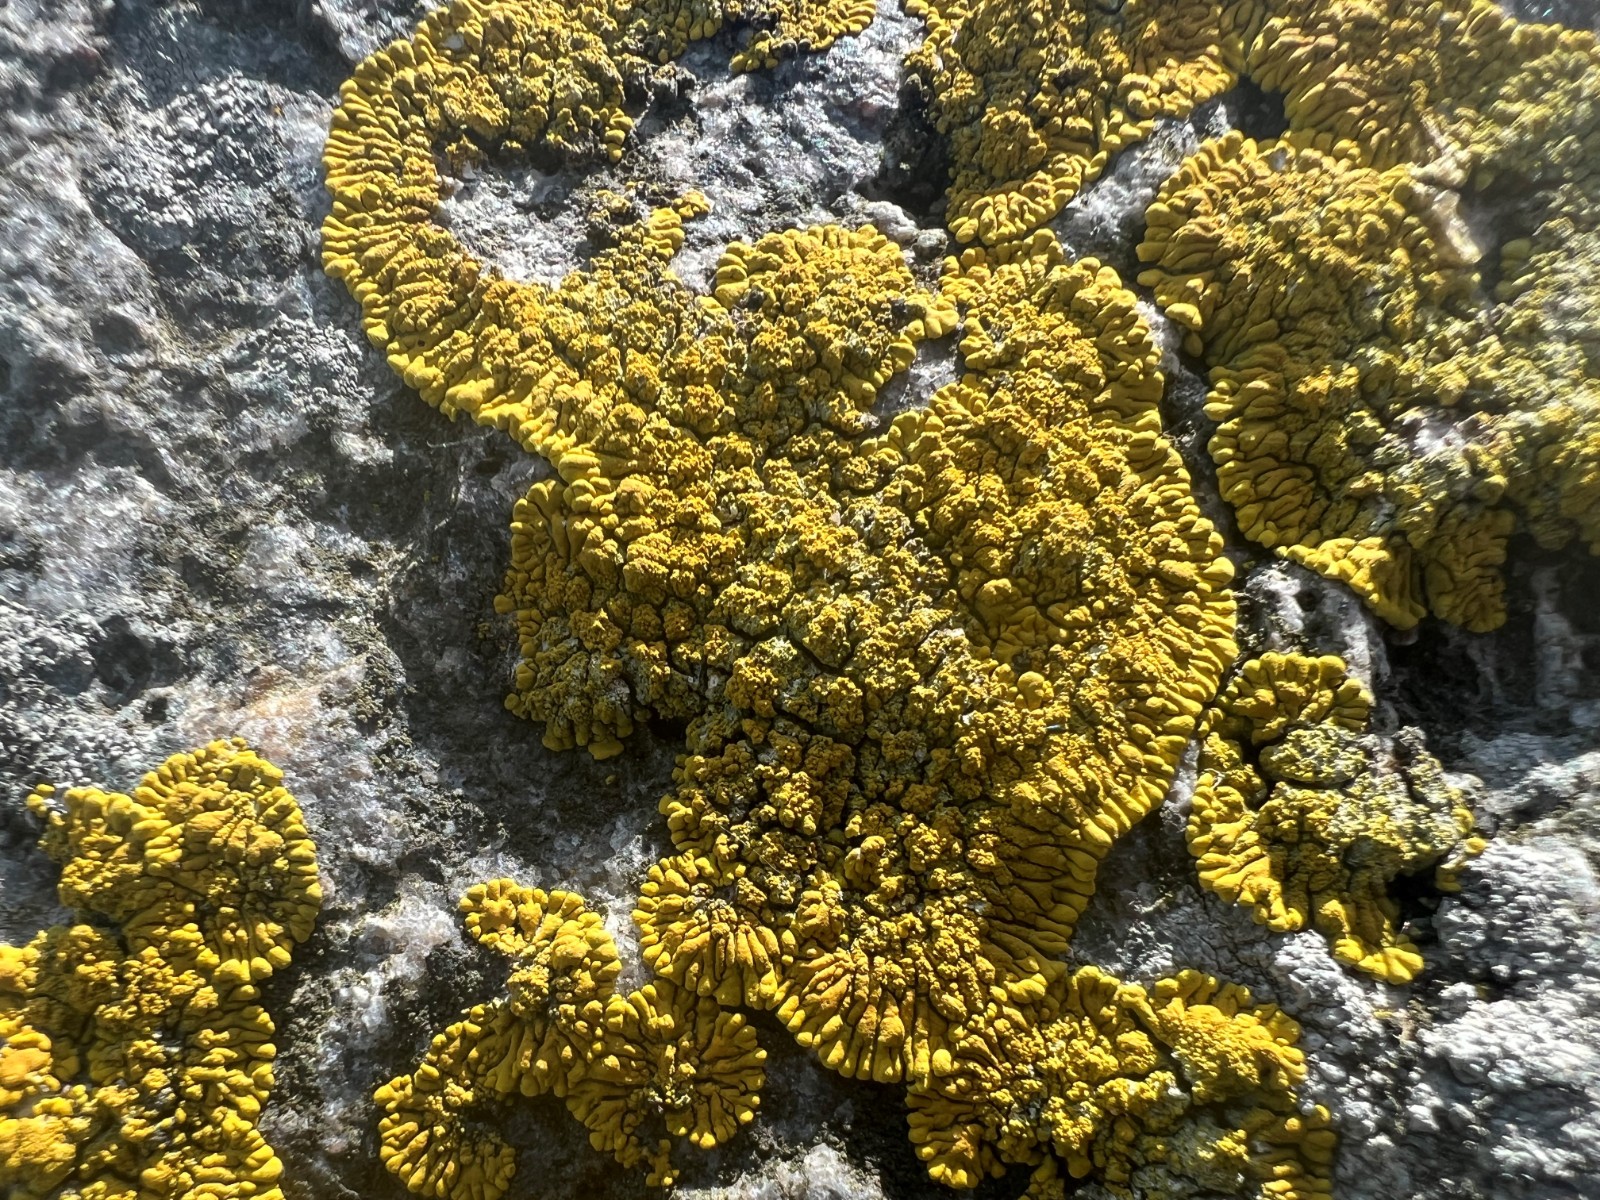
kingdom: Fungi
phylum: Ascomycota
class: Lecanoromycetes
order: Teloschistales
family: Teloschistaceae
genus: Verrucoplaca
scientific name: Verrucoplaca verruculifera
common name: koldkyst-orangelav
